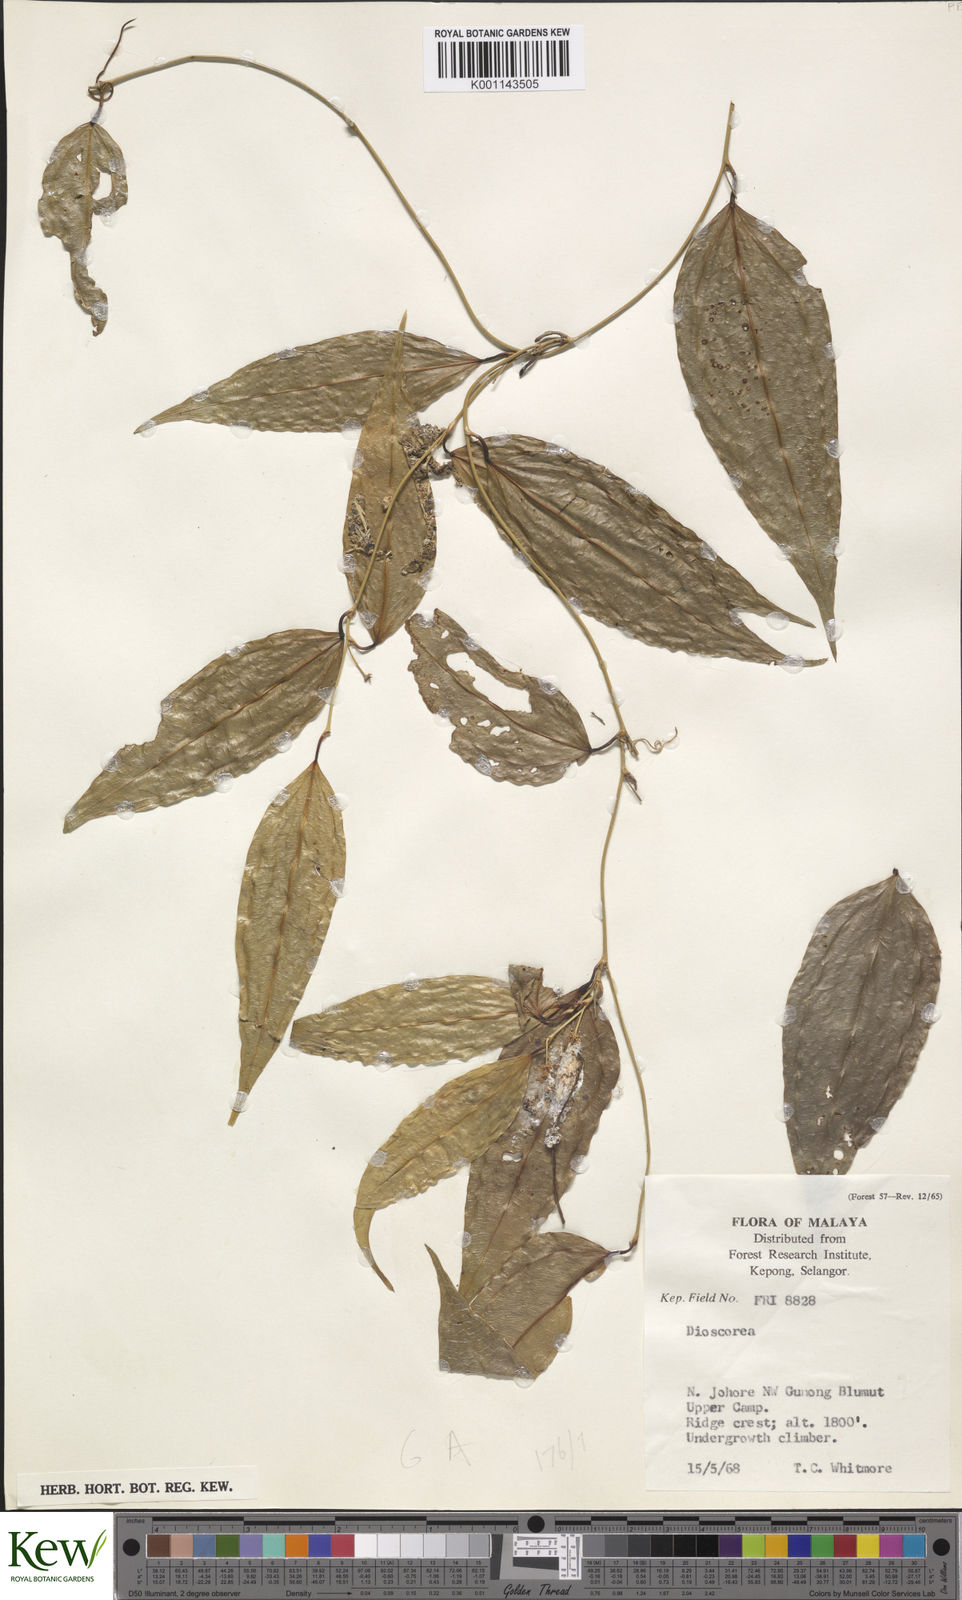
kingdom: Plantae
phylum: Tracheophyta
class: Liliopsida
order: Dioscoreales
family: Dioscoreaceae
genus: Dioscorea
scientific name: Dioscorea
